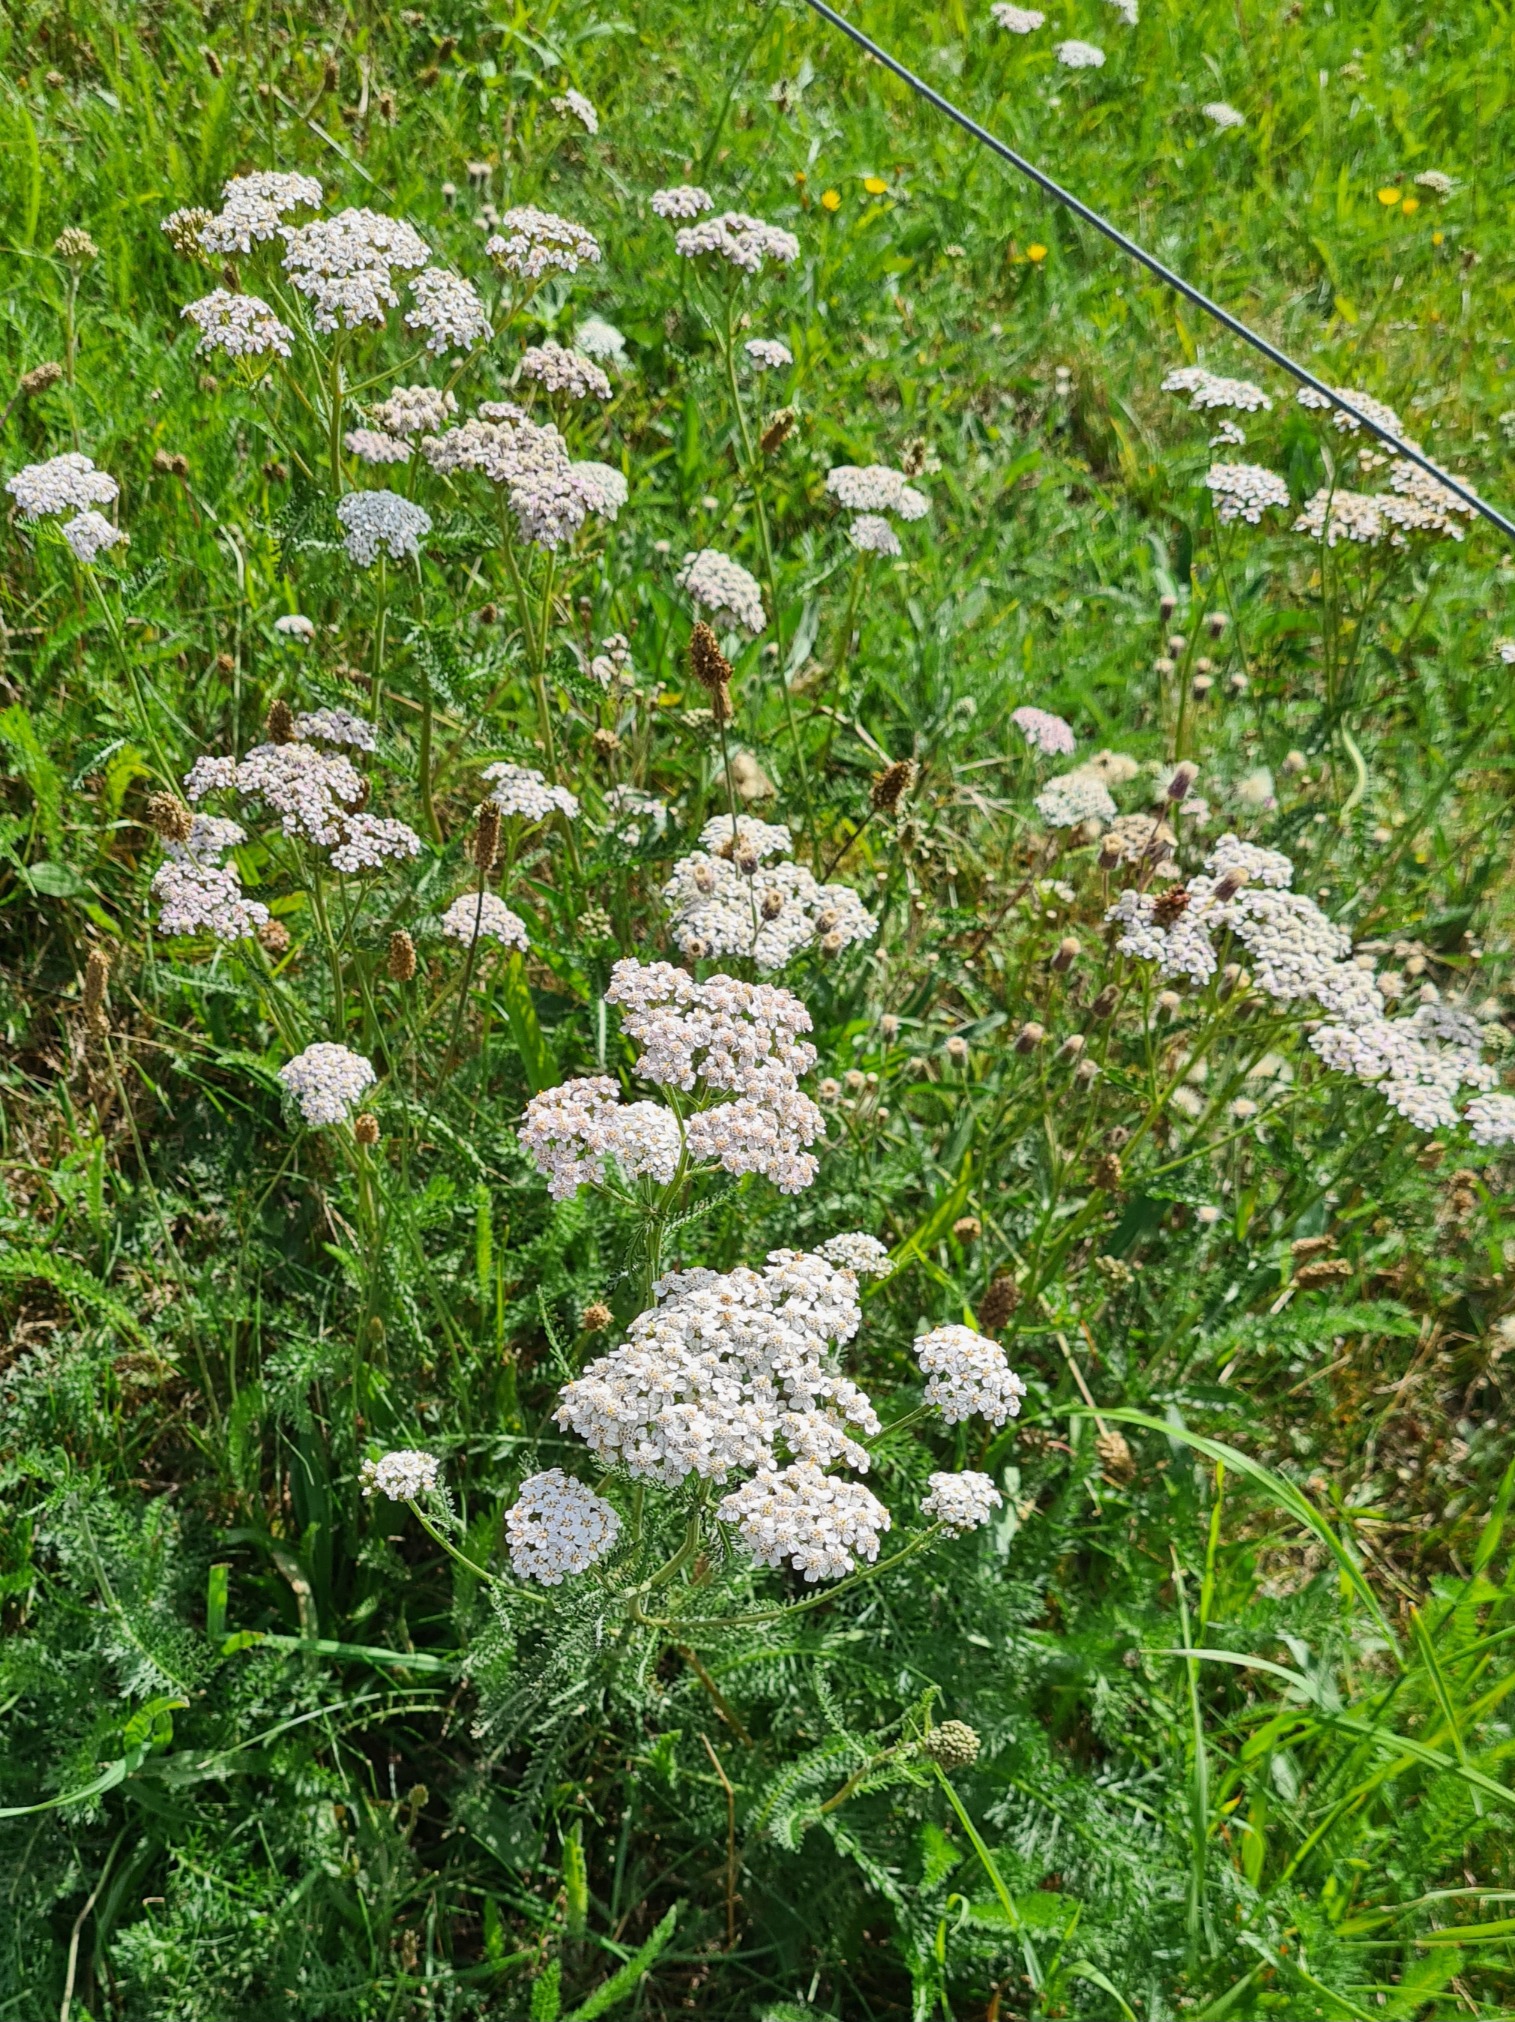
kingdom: Plantae
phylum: Tracheophyta
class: Magnoliopsida
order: Asterales
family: Asteraceae
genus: Achillea
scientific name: Achillea millefolium
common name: Almindelig røllike
